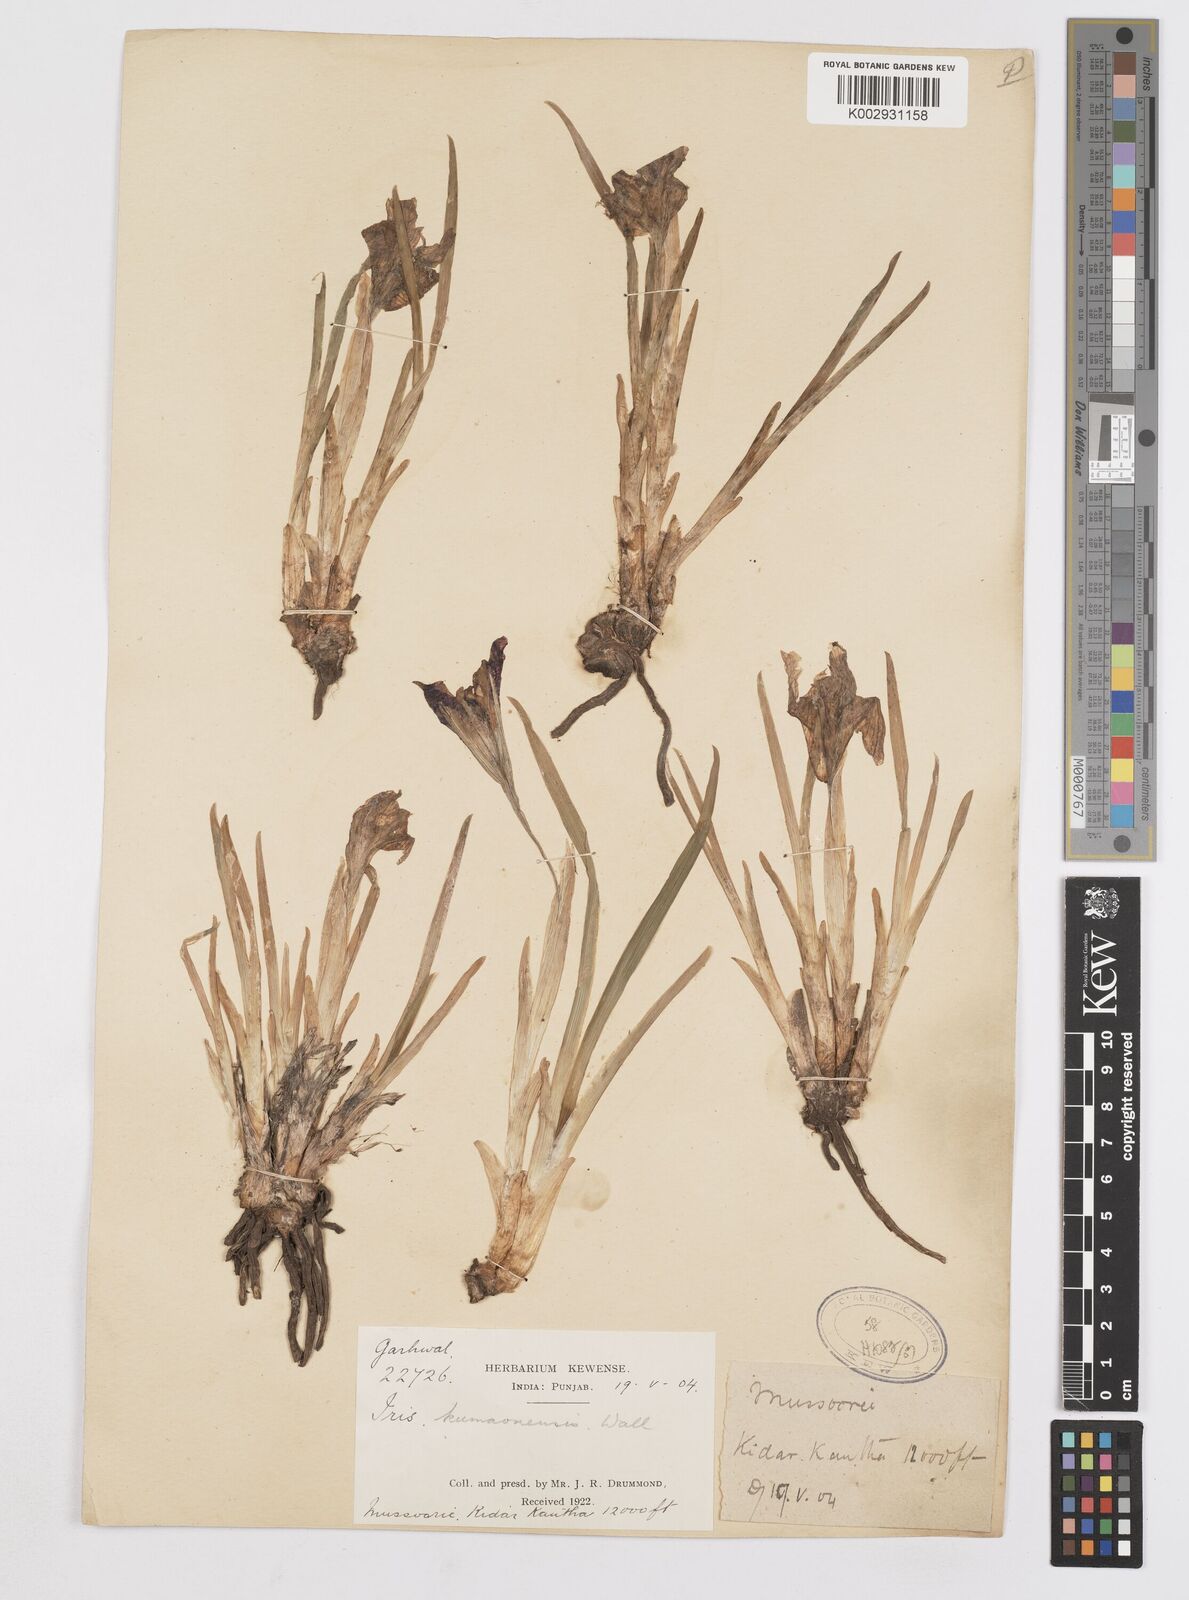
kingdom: Plantae
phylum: Tracheophyta
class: Liliopsida
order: Asparagales
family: Iridaceae
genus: Iris
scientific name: Iris kemaonensis
